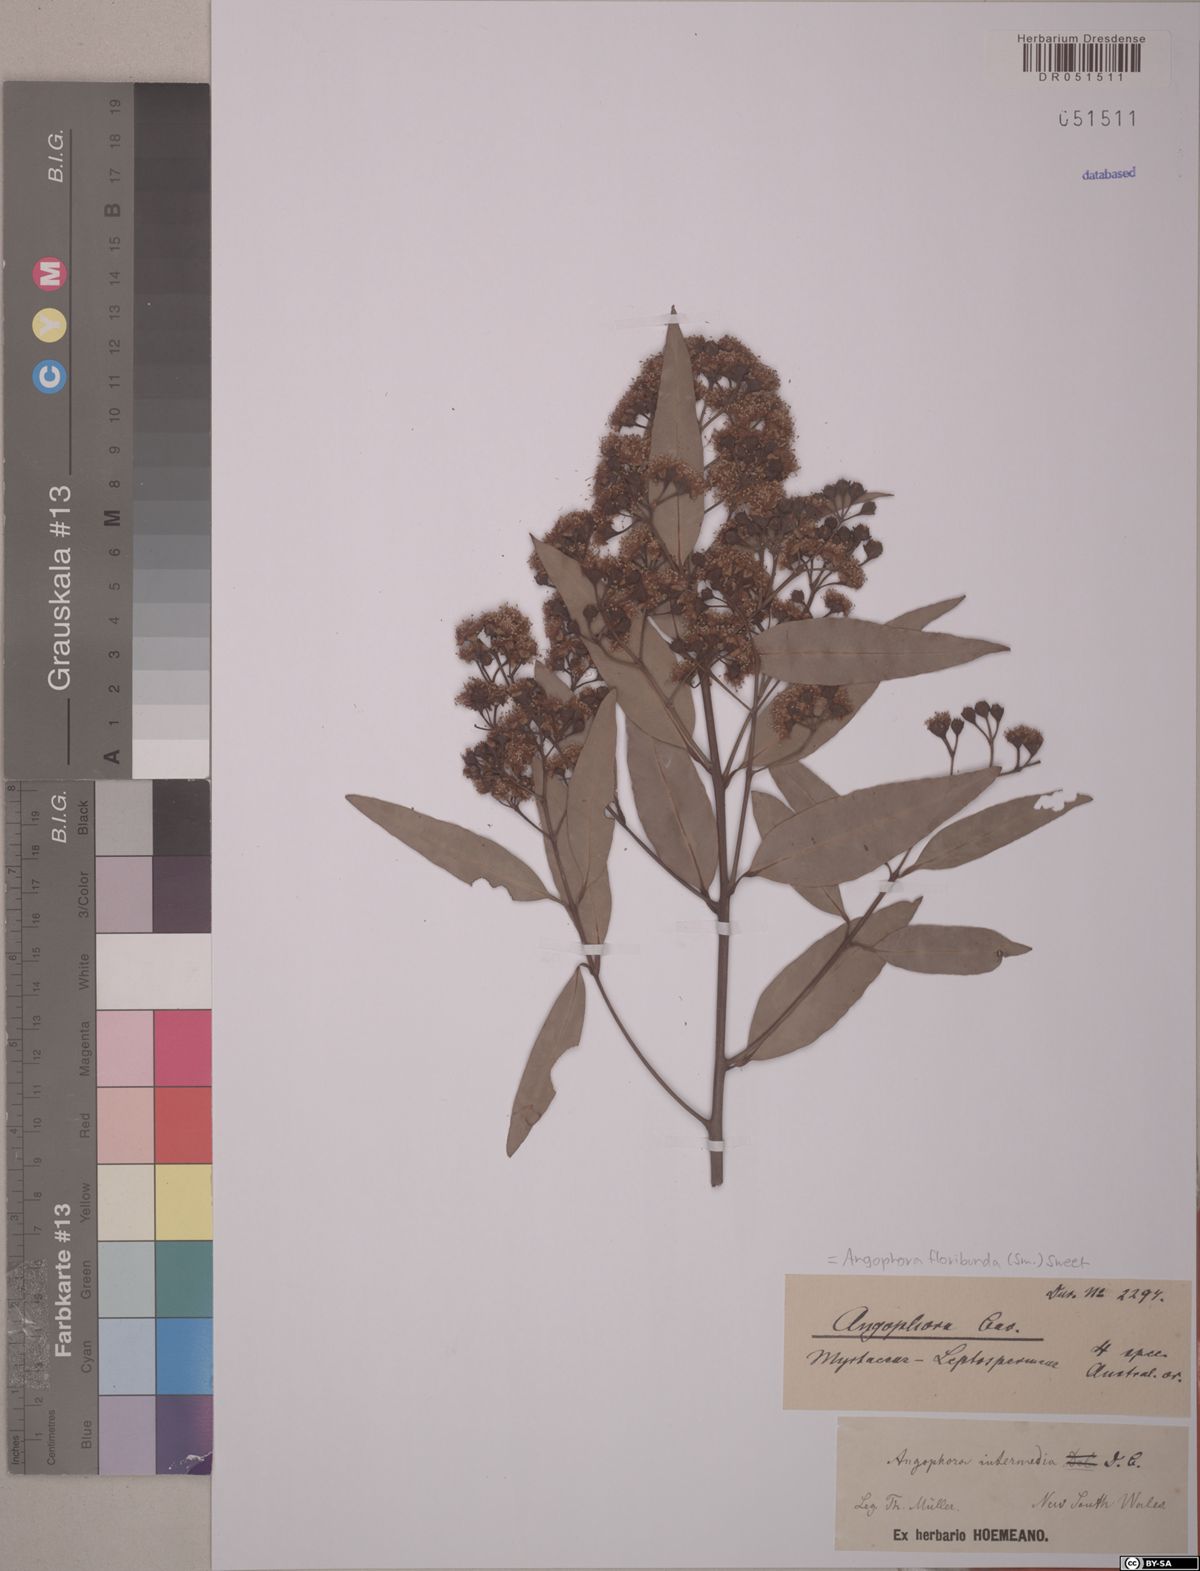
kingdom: Plantae
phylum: Tracheophyta
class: Magnoliopsida
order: Myrtales
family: Myrtaceae
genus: Angophora
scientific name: Angophora floribunda
